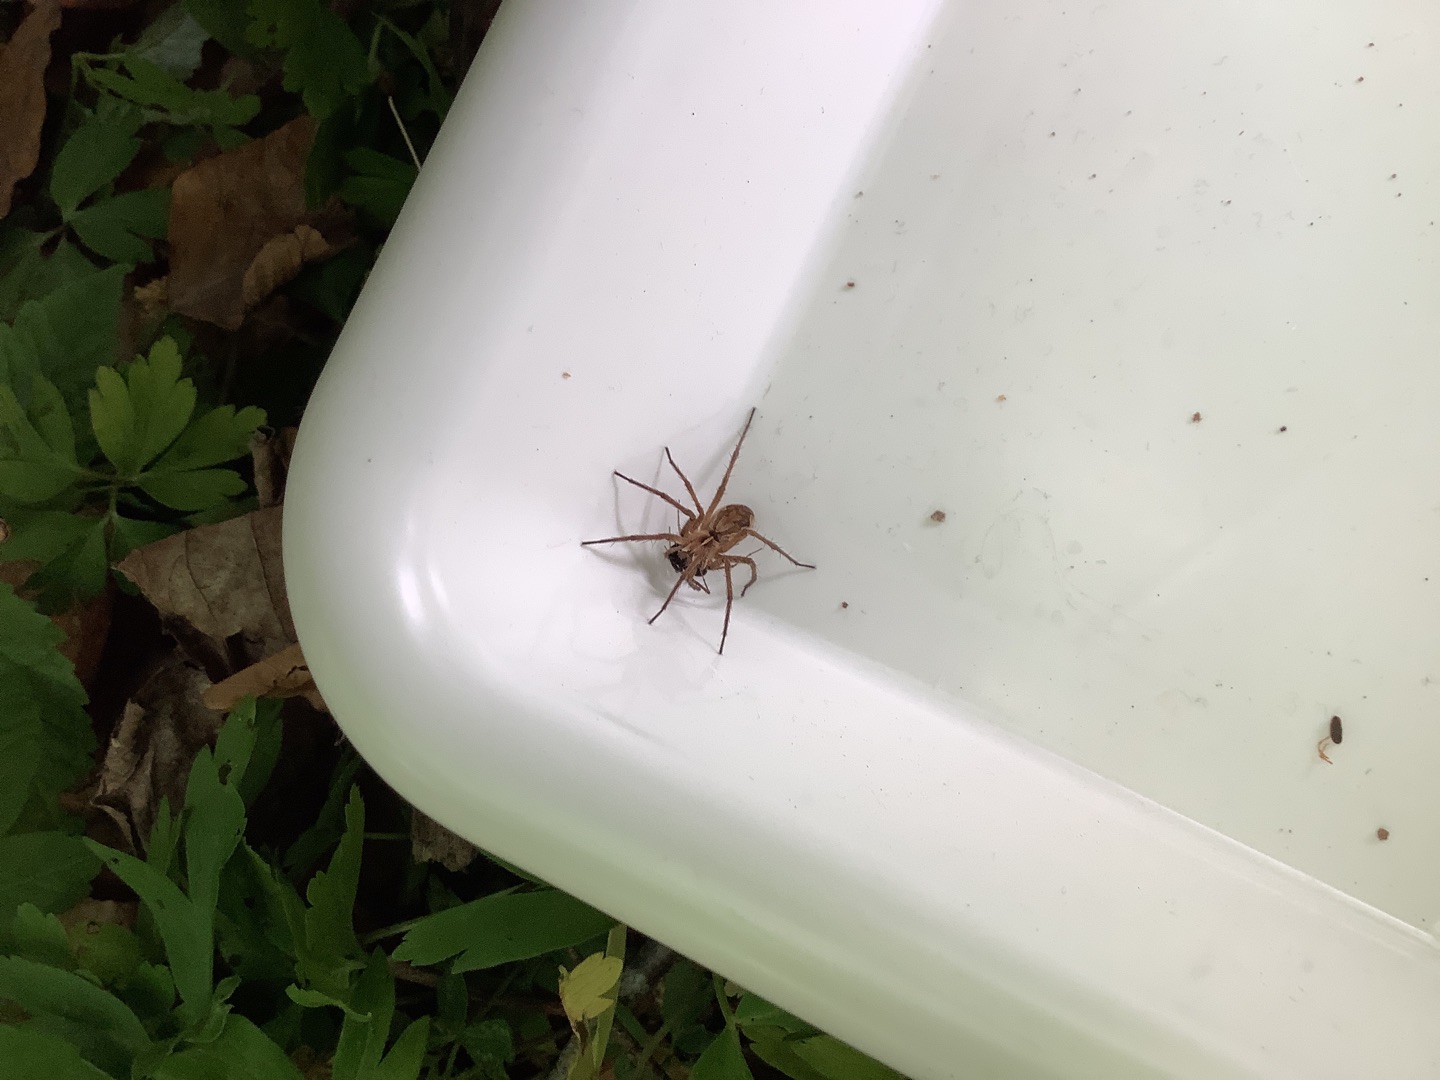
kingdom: Animalia
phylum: Arthropoda
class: Arachnida
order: Araneae
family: Pisauridae
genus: Pisaura
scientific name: Pisaura mirabilis
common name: Almindelig rovedderkop
